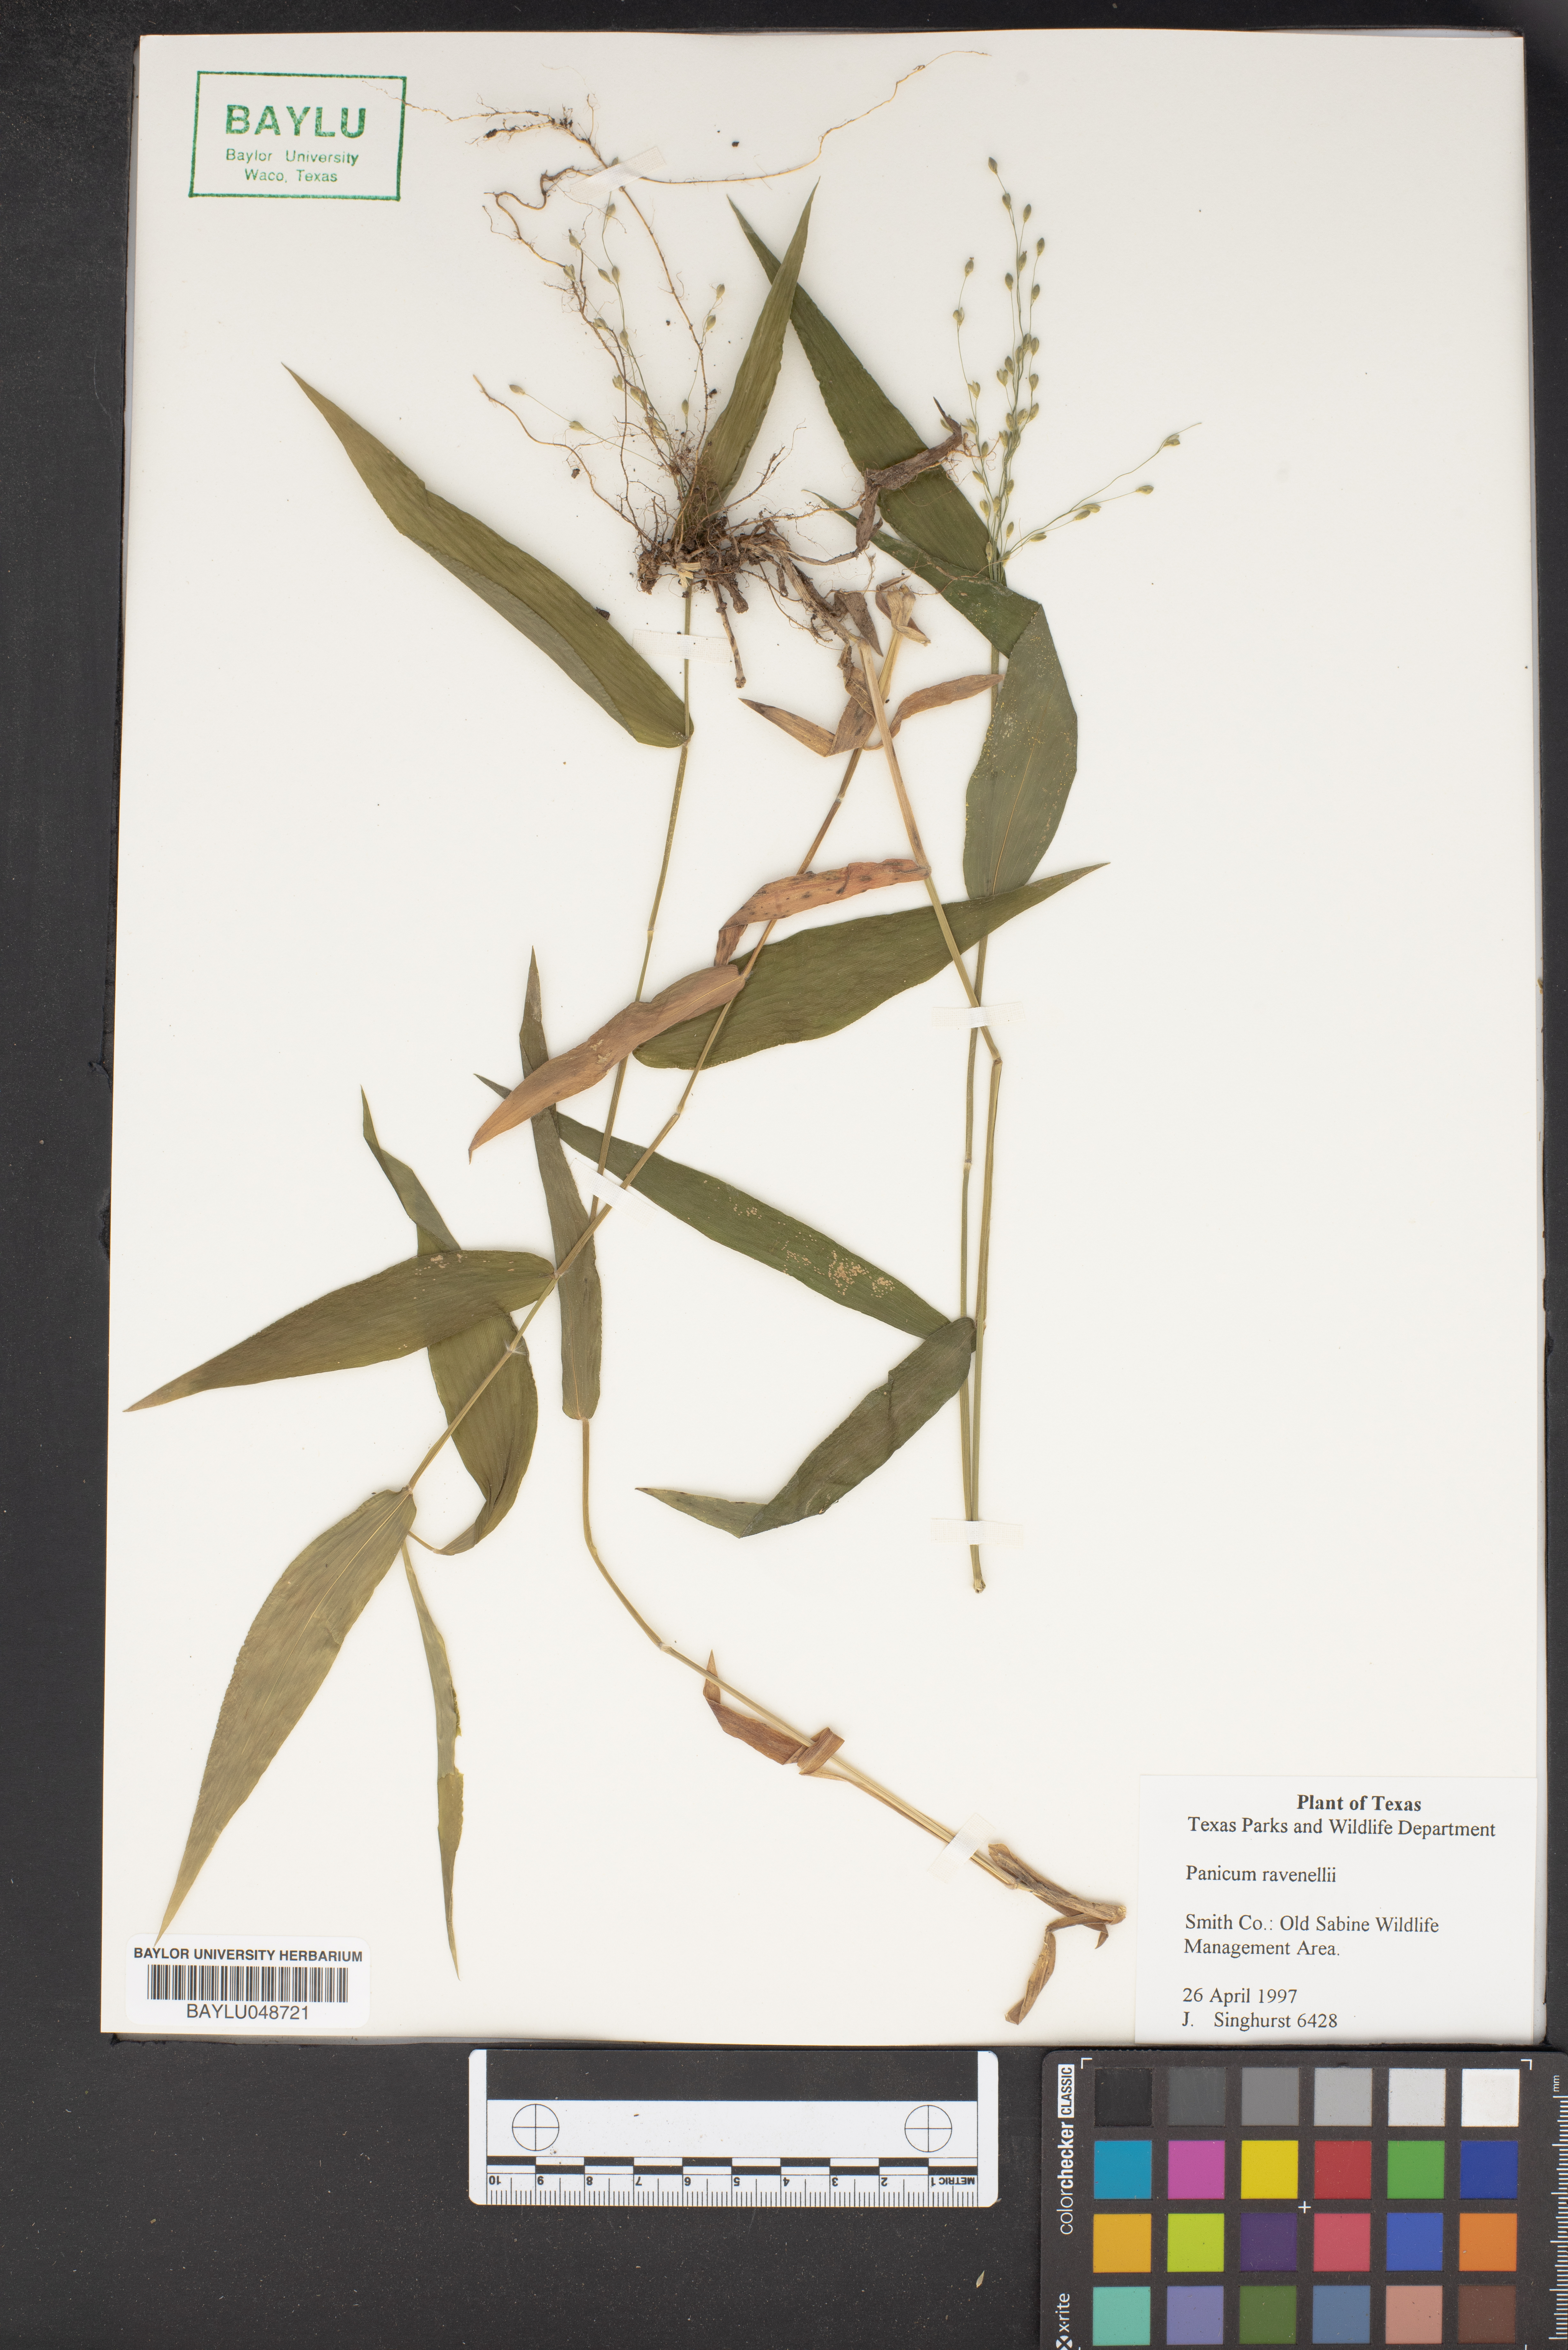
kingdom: Plantae
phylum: Tracheophyta
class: Liliopsida
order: Poales
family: Poaceae
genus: Dichanthelium
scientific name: Dichanthelium ravenelii
